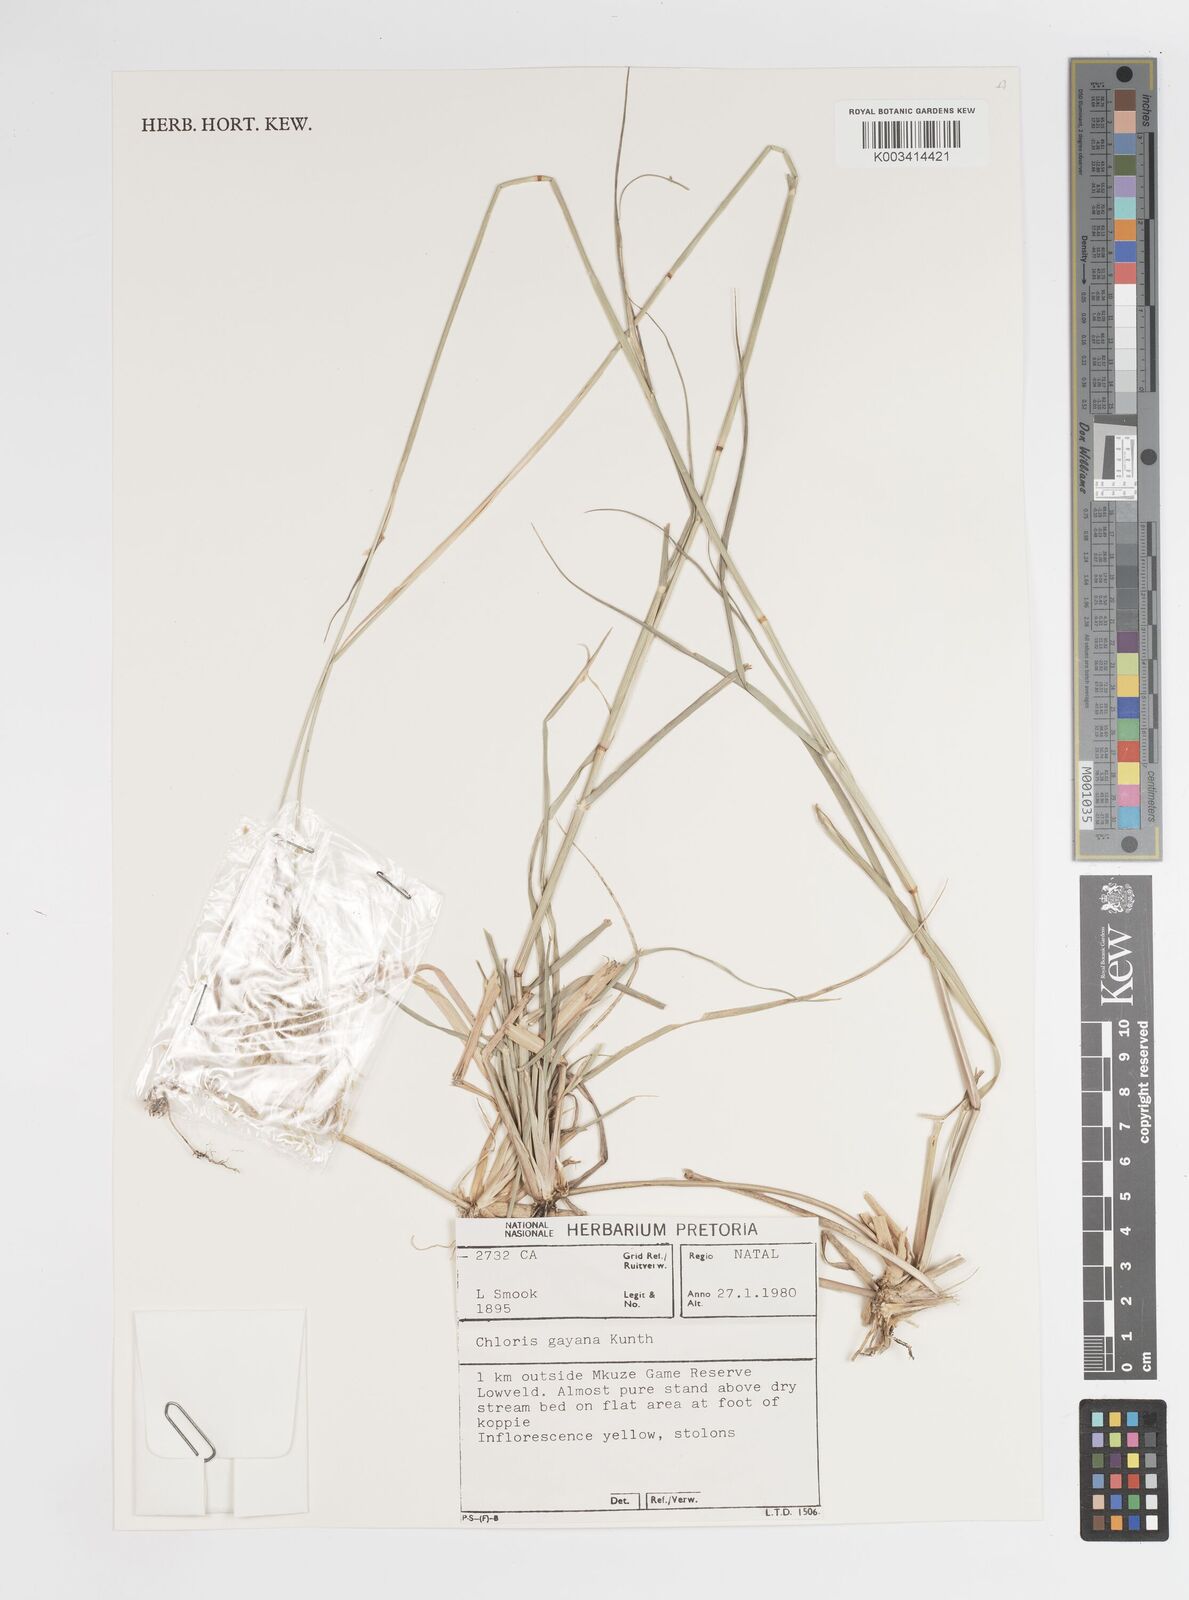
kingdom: Plantae
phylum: Tracheophyta
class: Liliopsida
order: Poales
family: Poaceae
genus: Chloris
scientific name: Chloris gayana
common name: Rhodes grass
